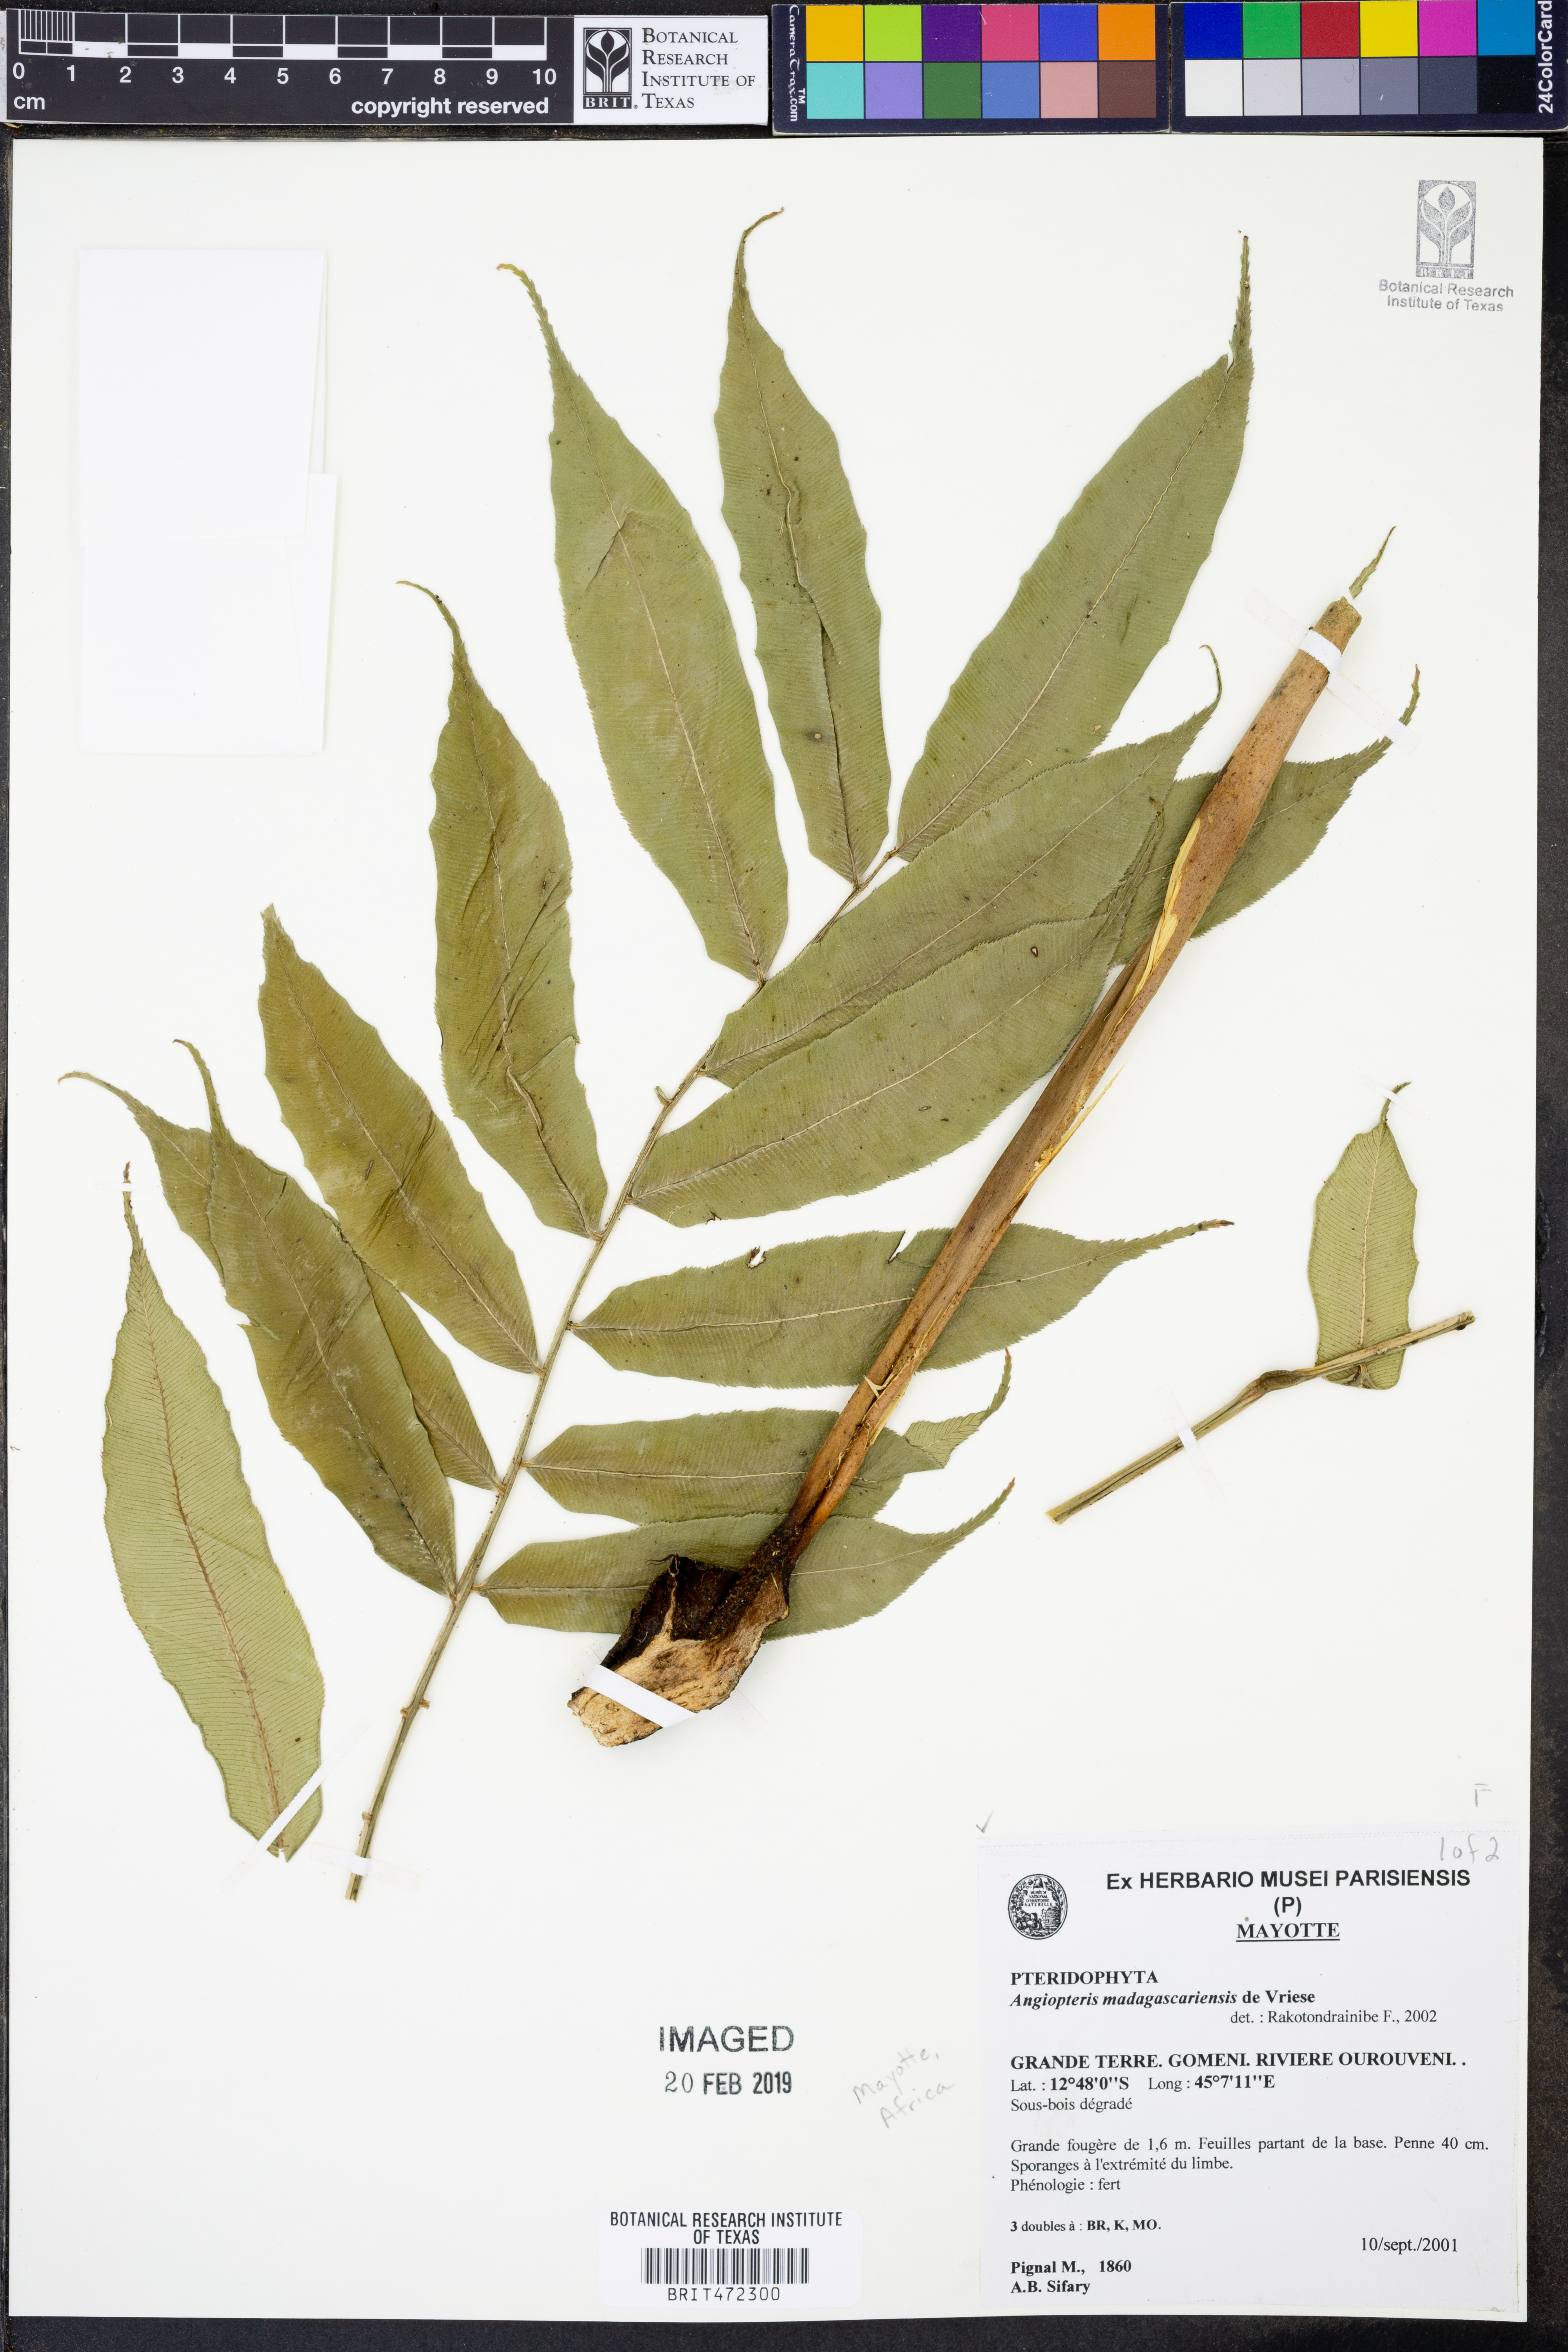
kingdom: Plantae
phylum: Tracheophyta
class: Polypodiopsida
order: Marattiales
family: Marattiaceae
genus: Angiopteris
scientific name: Angiopteris madagascariensis
